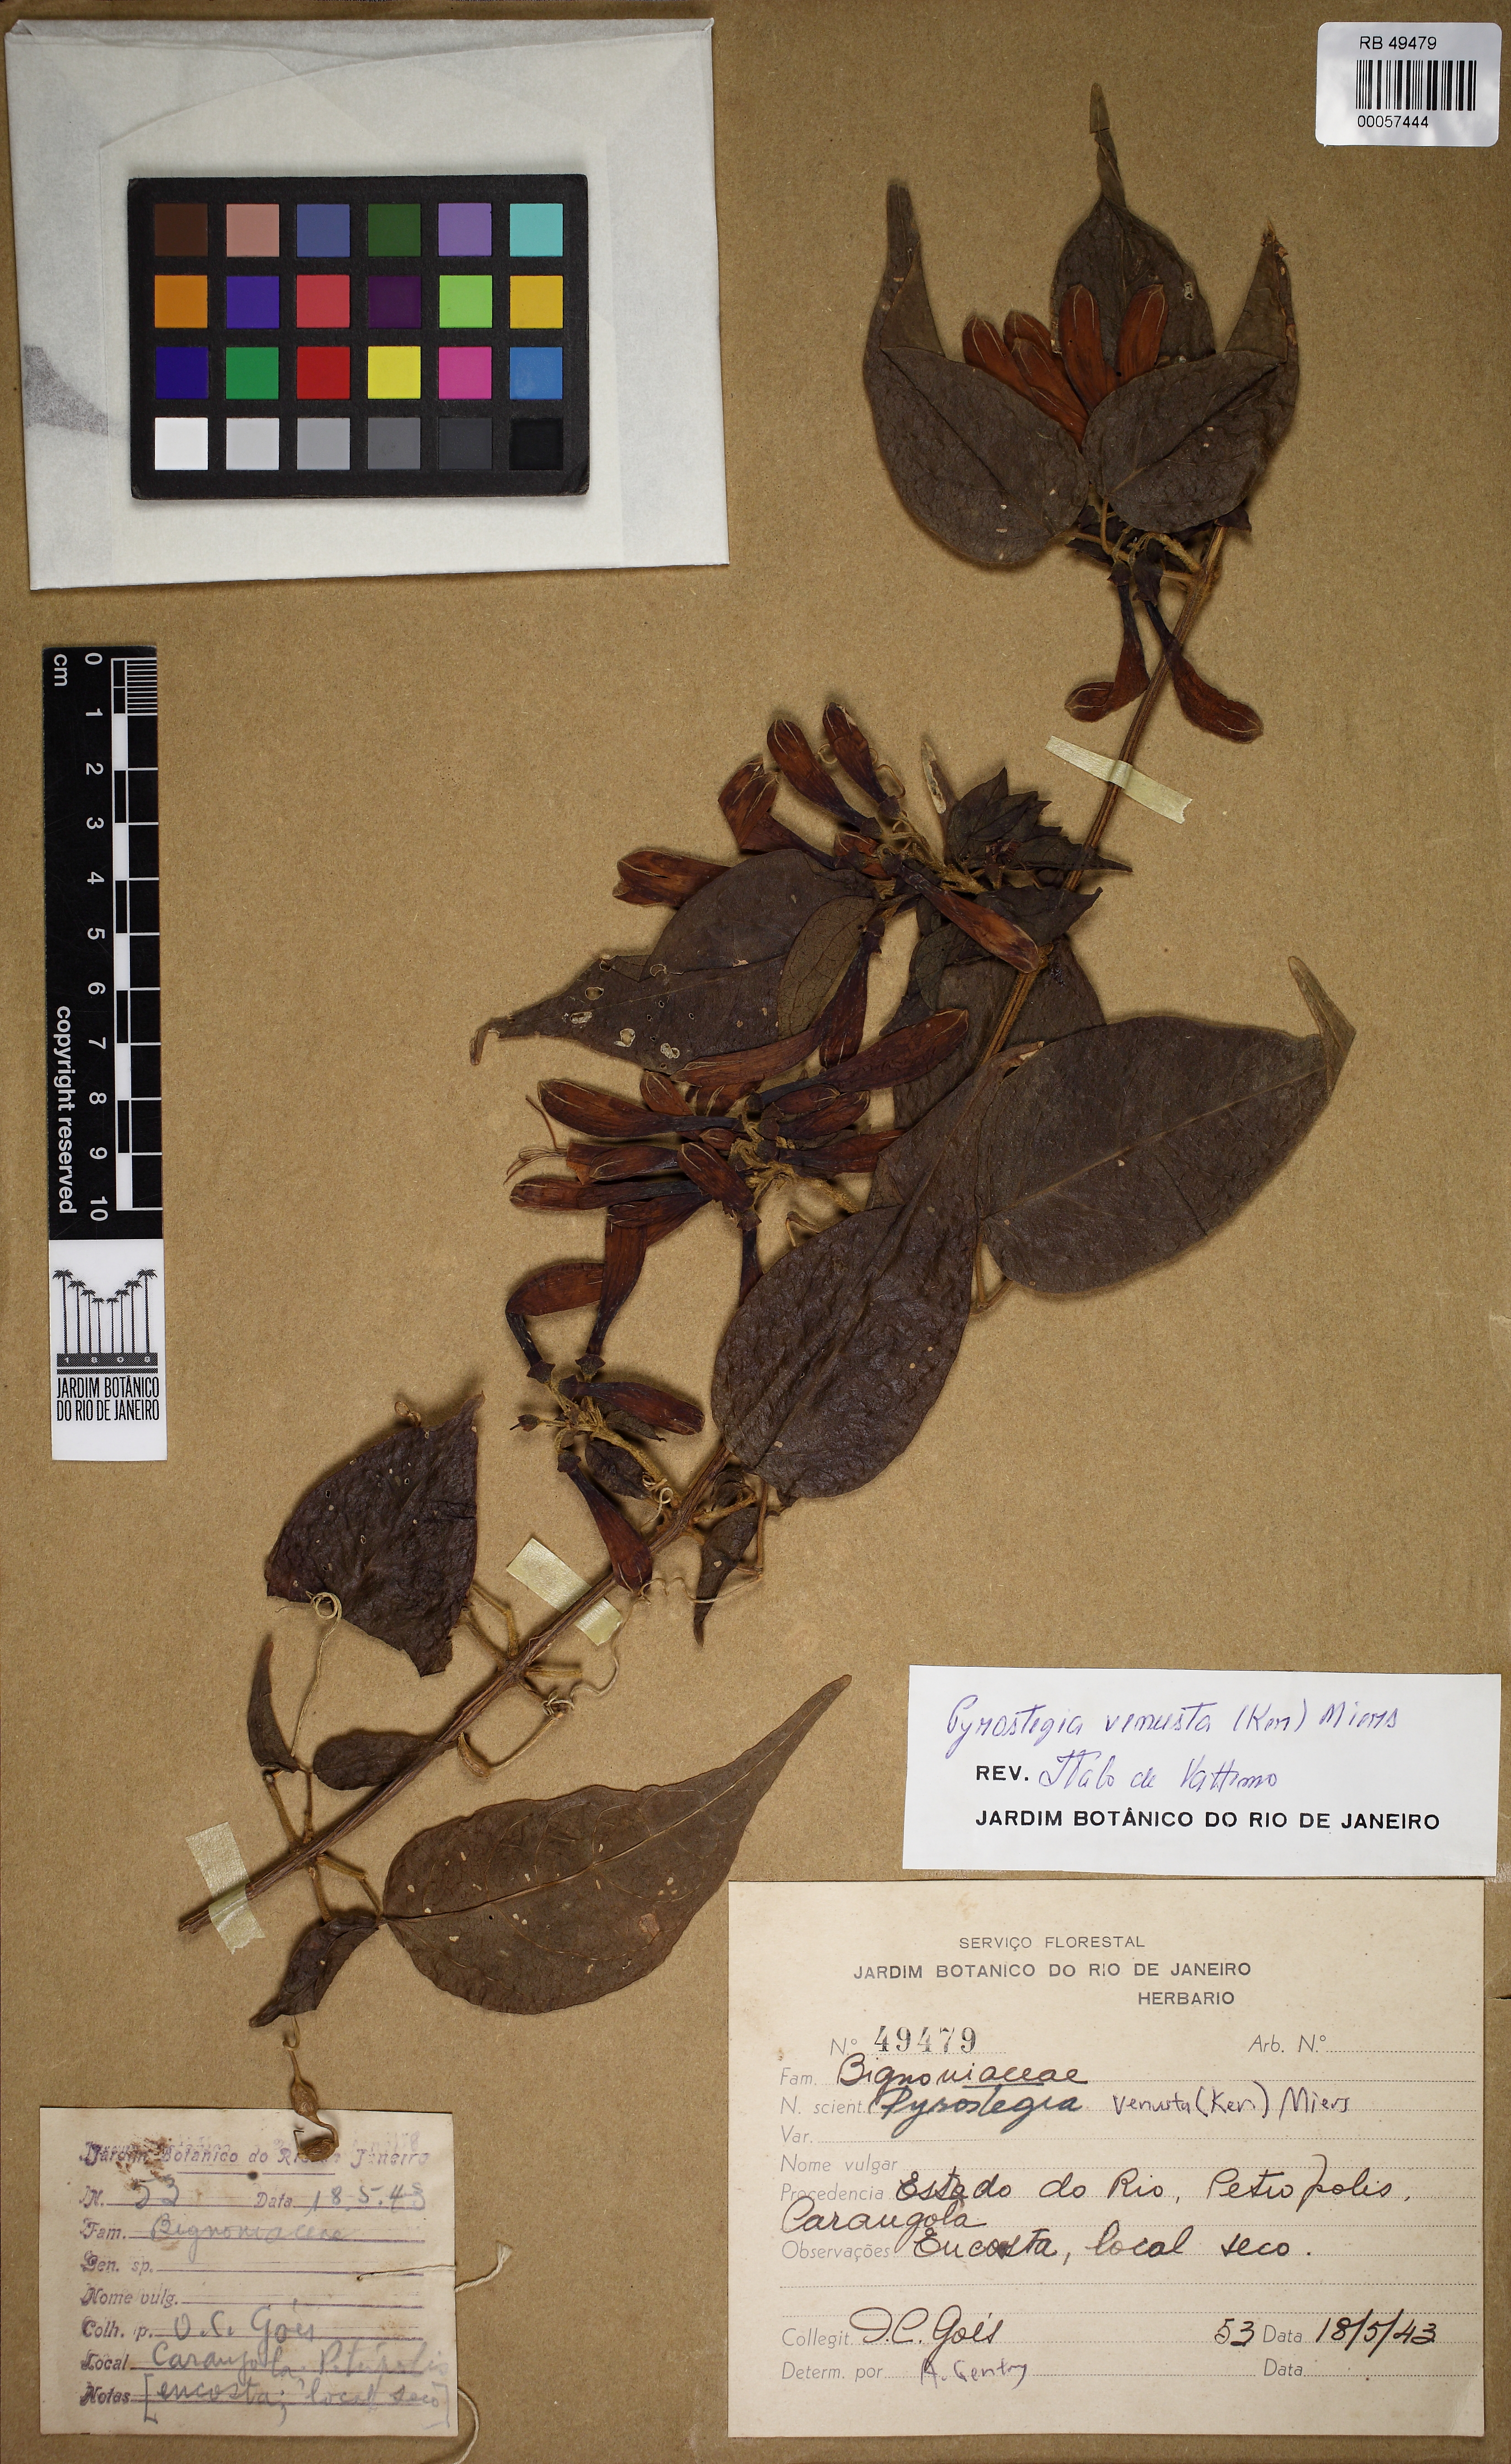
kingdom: Plantae
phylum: Tracheophyta
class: Magnoliopsida
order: Lamiales
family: Bignoniaceae
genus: Pyrostegia
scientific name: Pyrostegia venusta
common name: Flamevine
